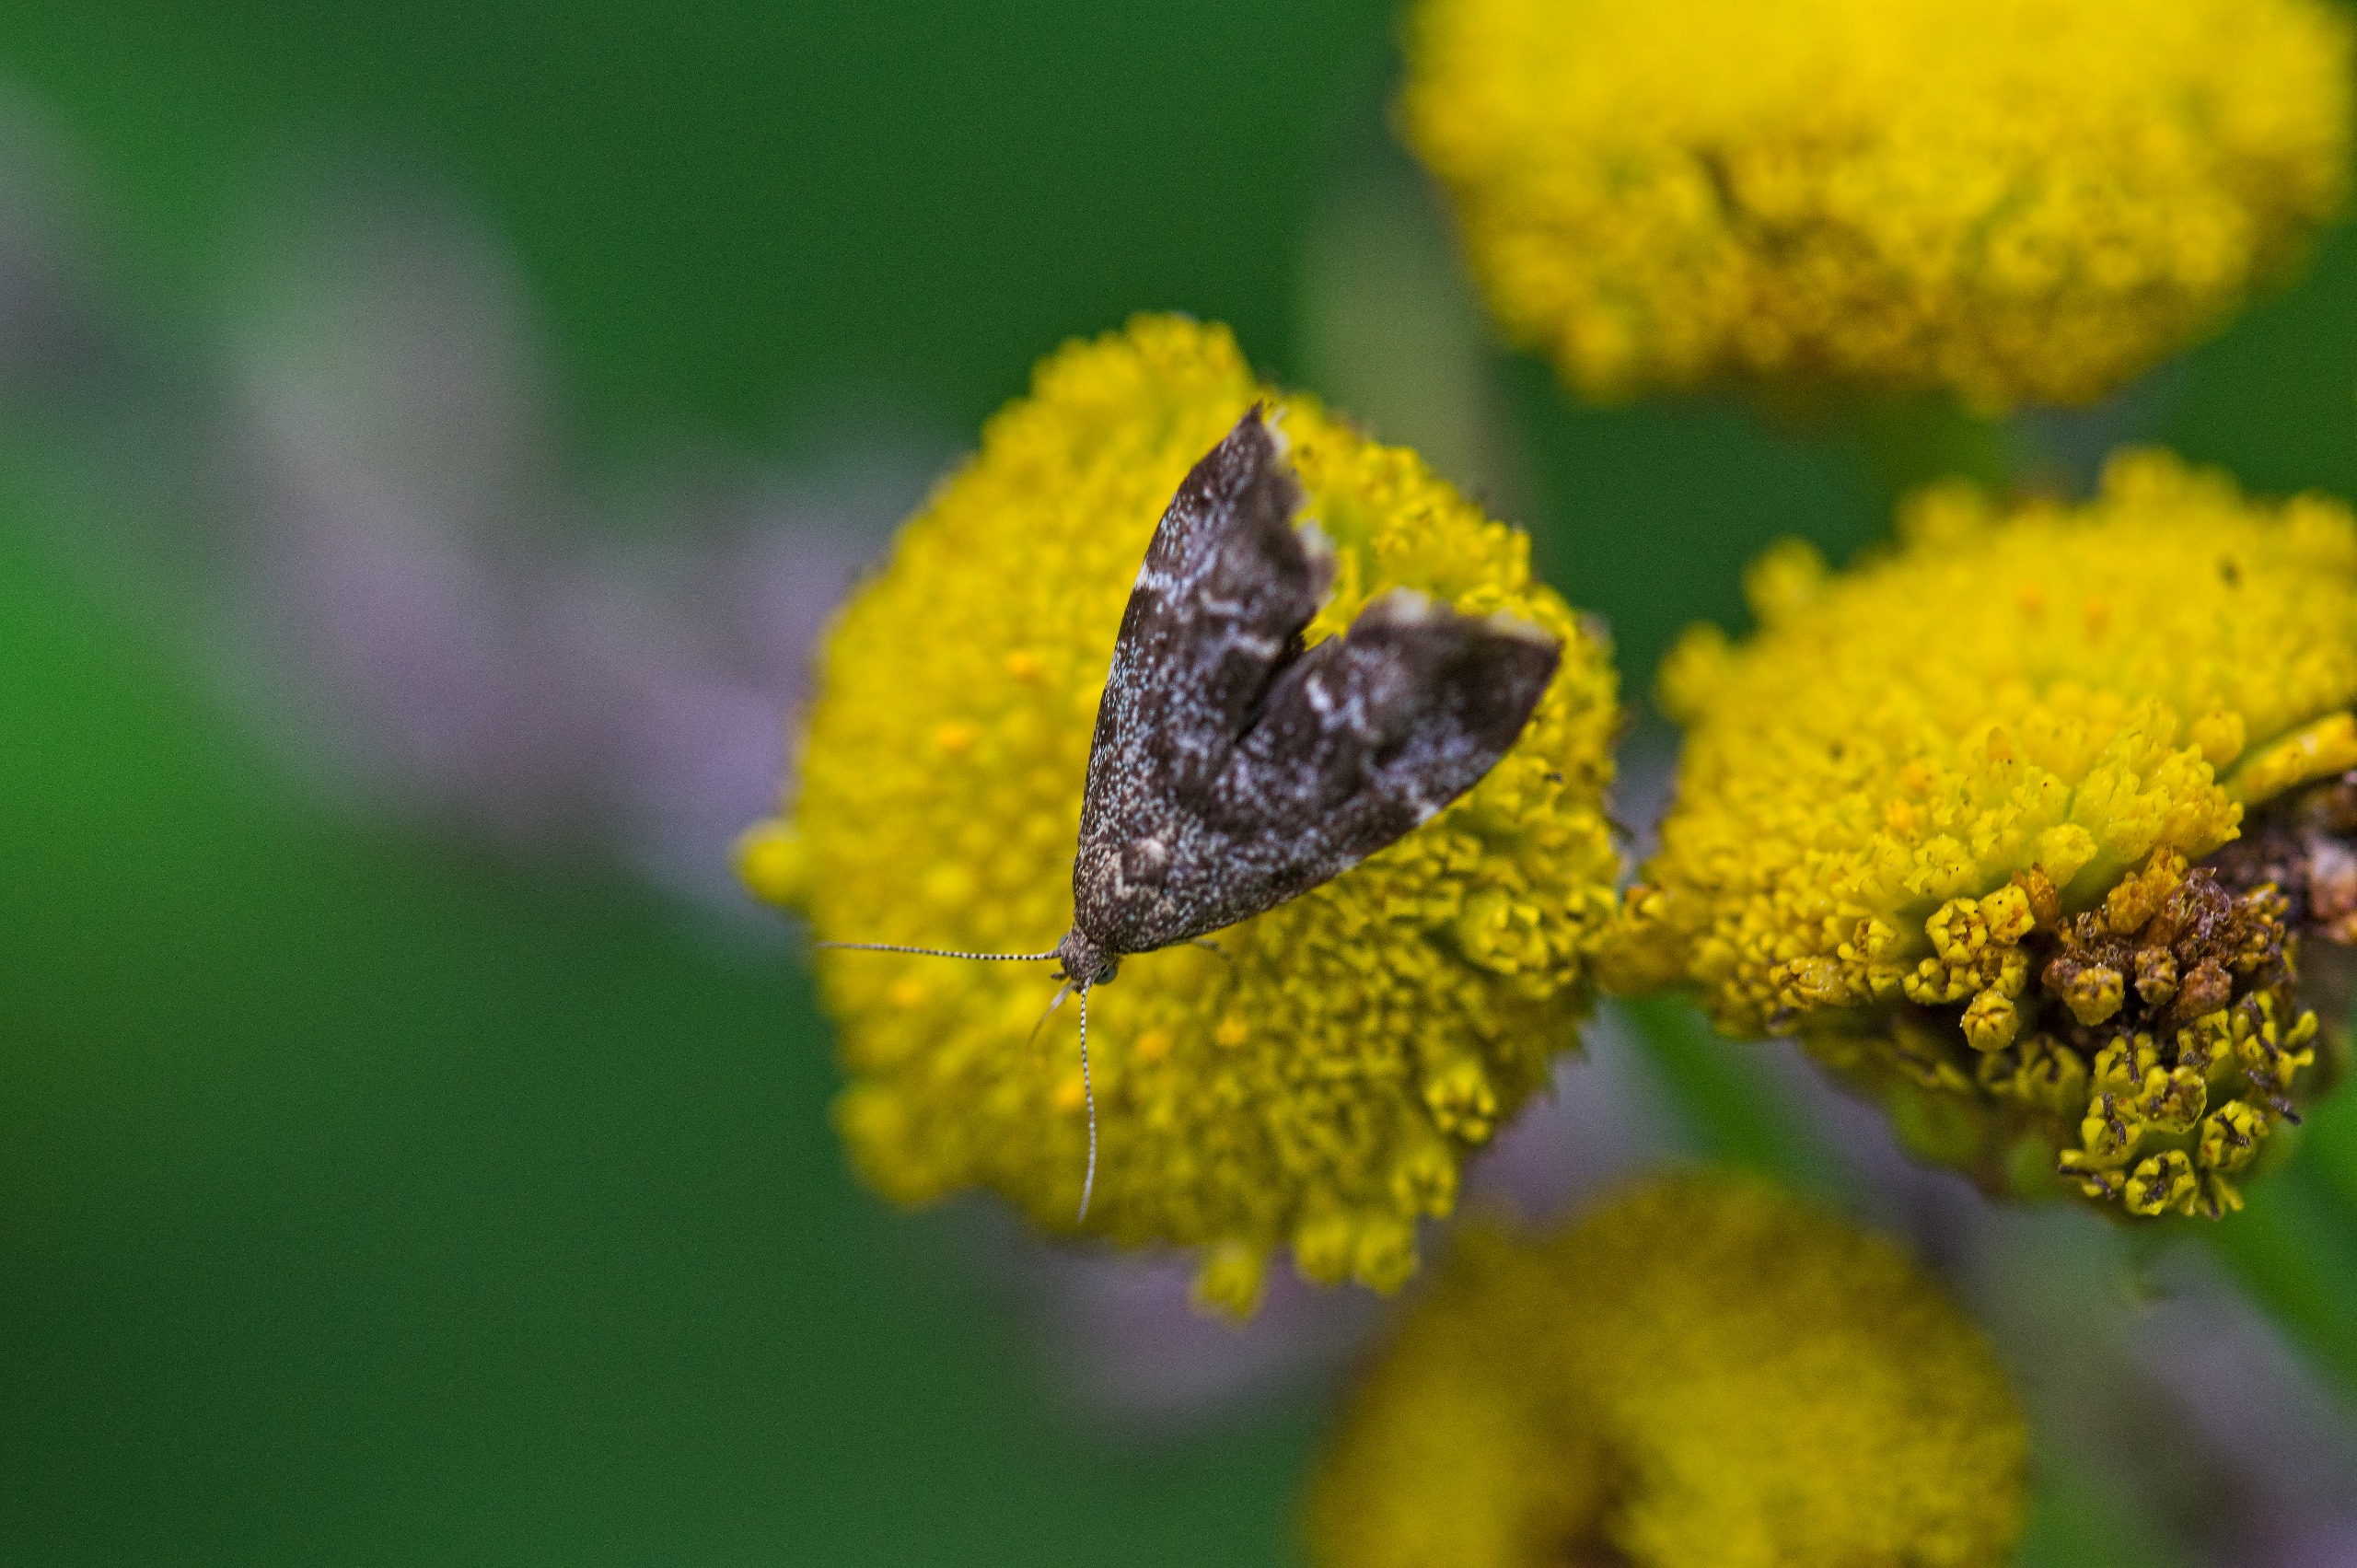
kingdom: Animalia
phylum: Arthropoda
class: Insecta
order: Lepidoptera
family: Choreutidae
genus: Anthophila
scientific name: Anthophila fabriciana
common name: Bredvinget nældevikler
